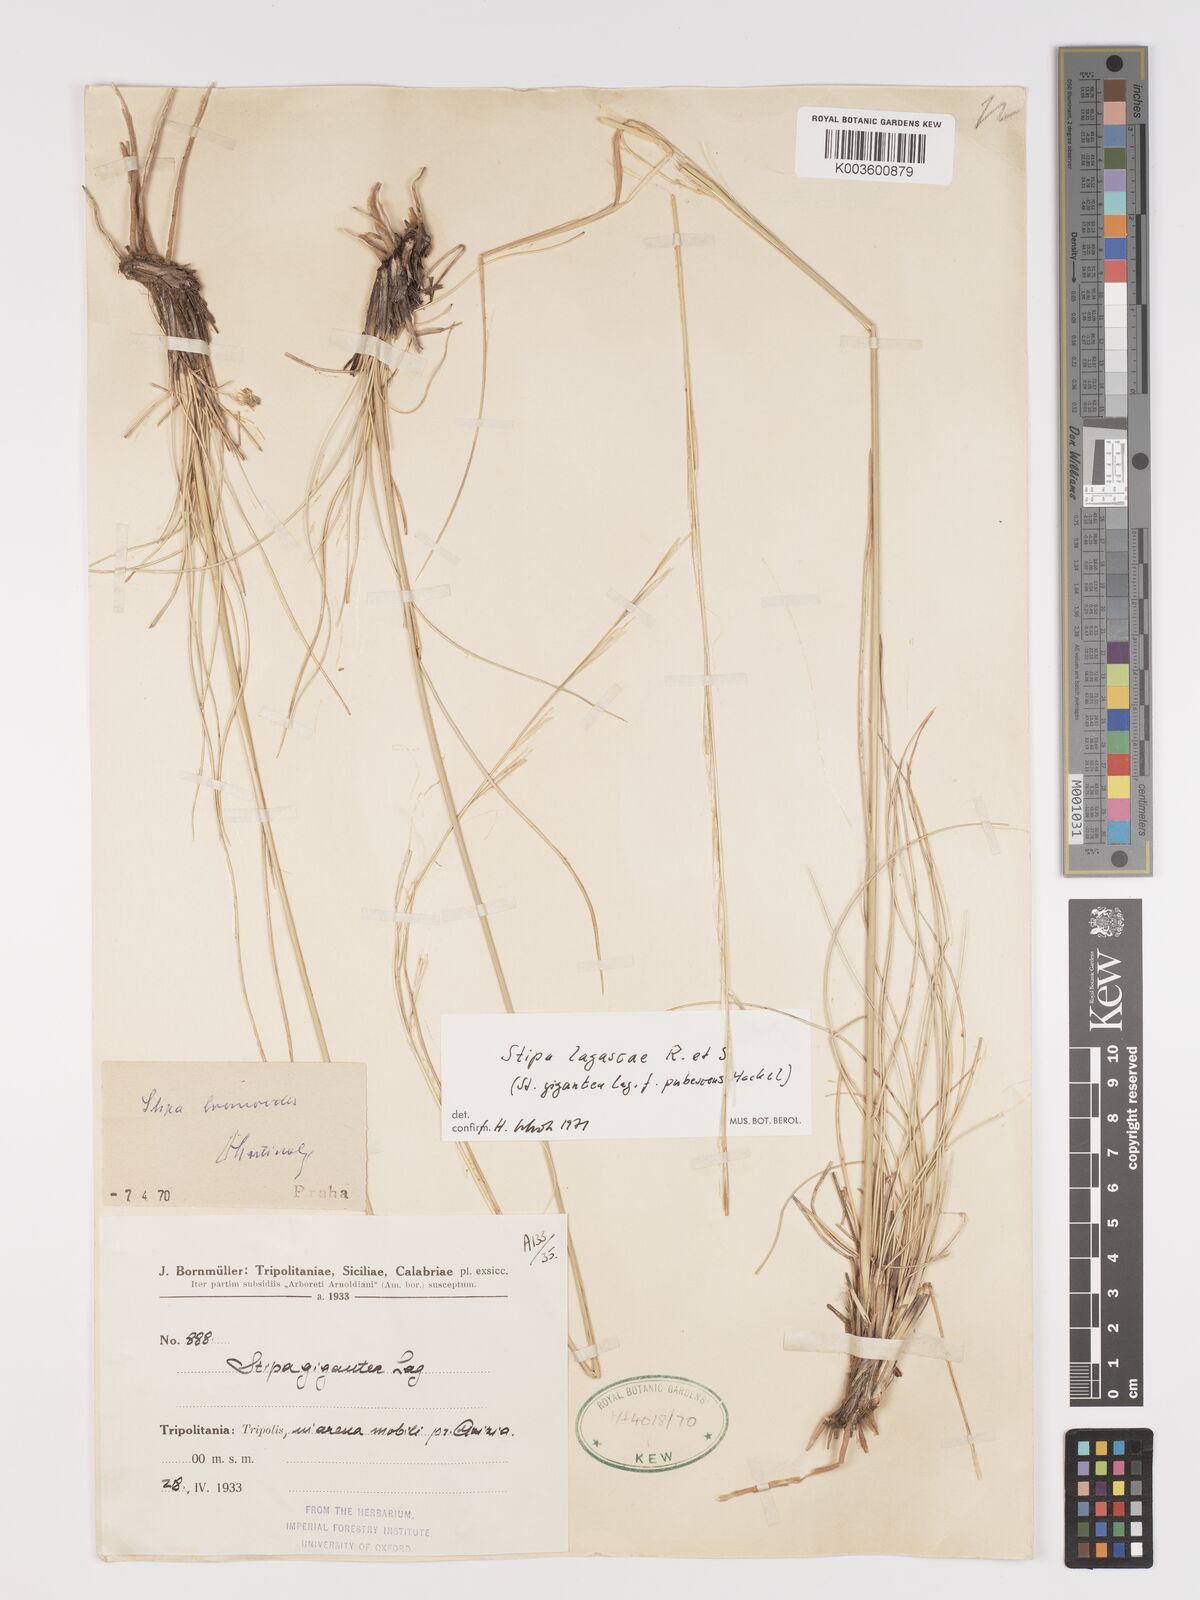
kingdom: Plantae
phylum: Tracheophyta
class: Liliopsida
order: Poales
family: Poaceae
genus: Stipa
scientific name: Stipa lagascae
